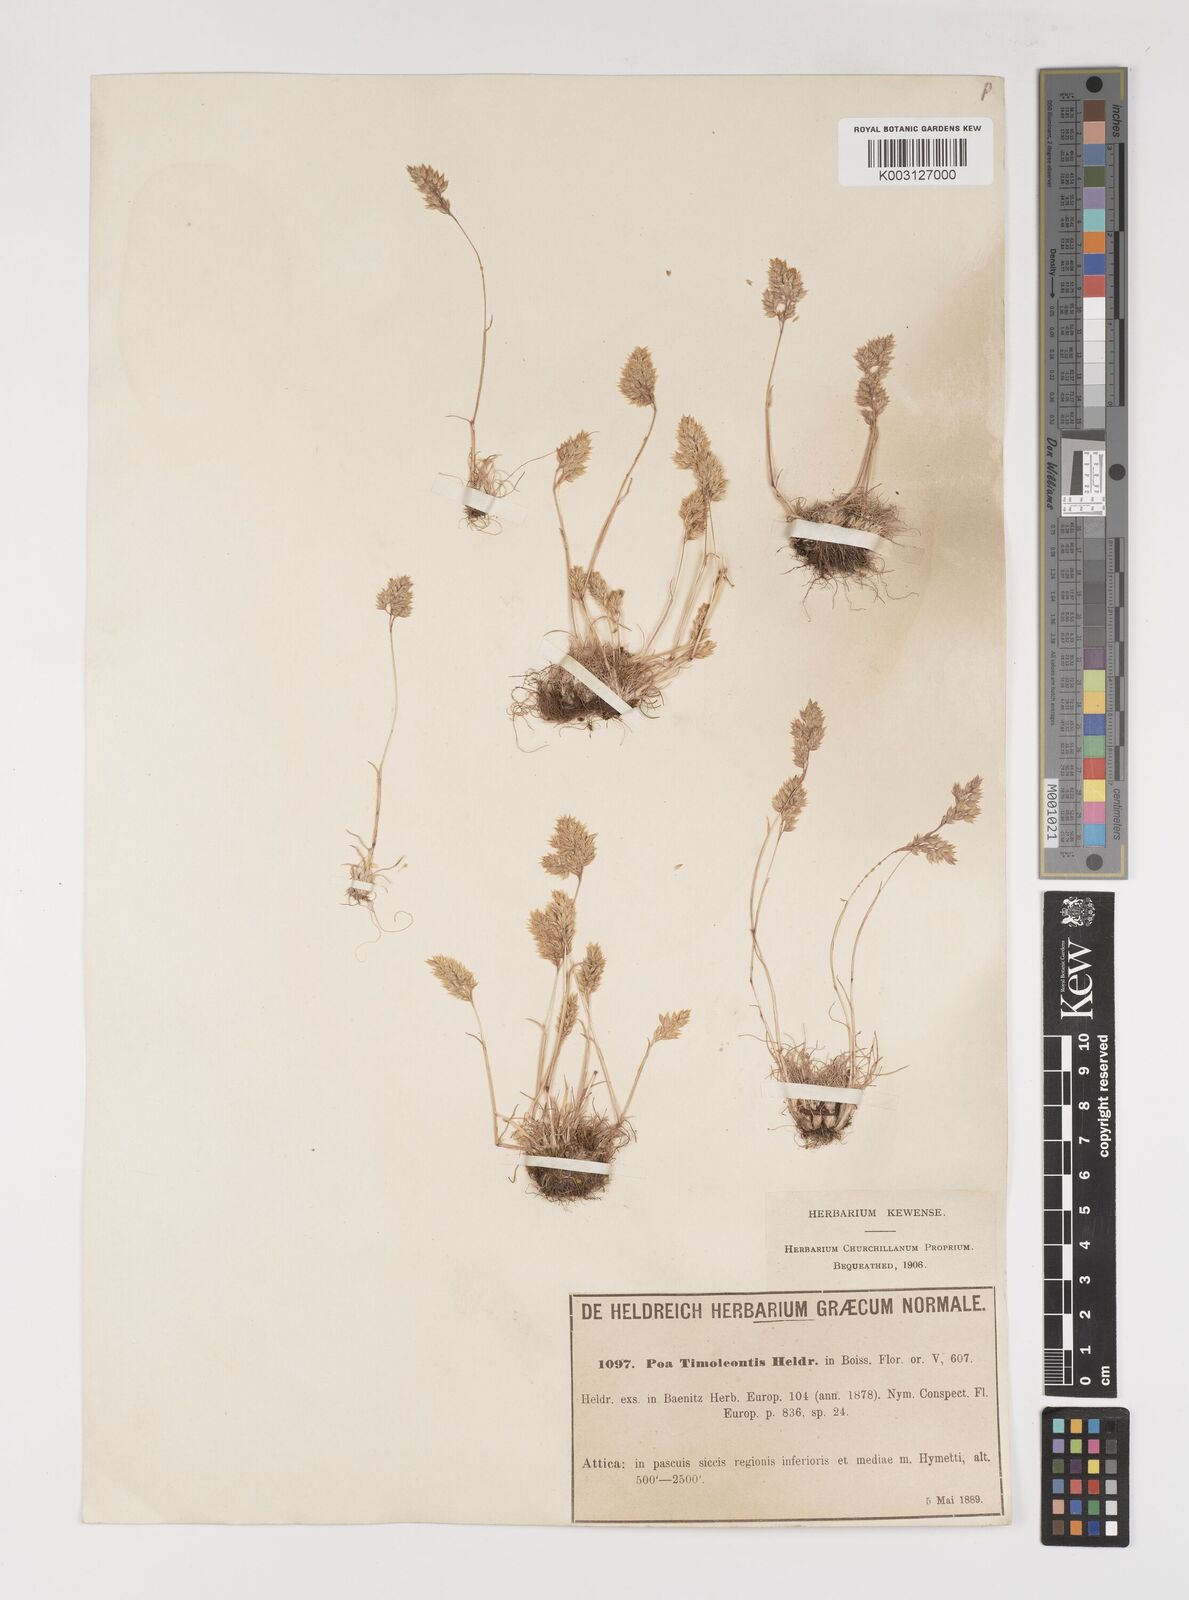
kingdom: Plantae
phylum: Tracheophyta
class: Liliopsida
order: Poales
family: Poaceae
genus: Poa
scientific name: Poa timoleontis
